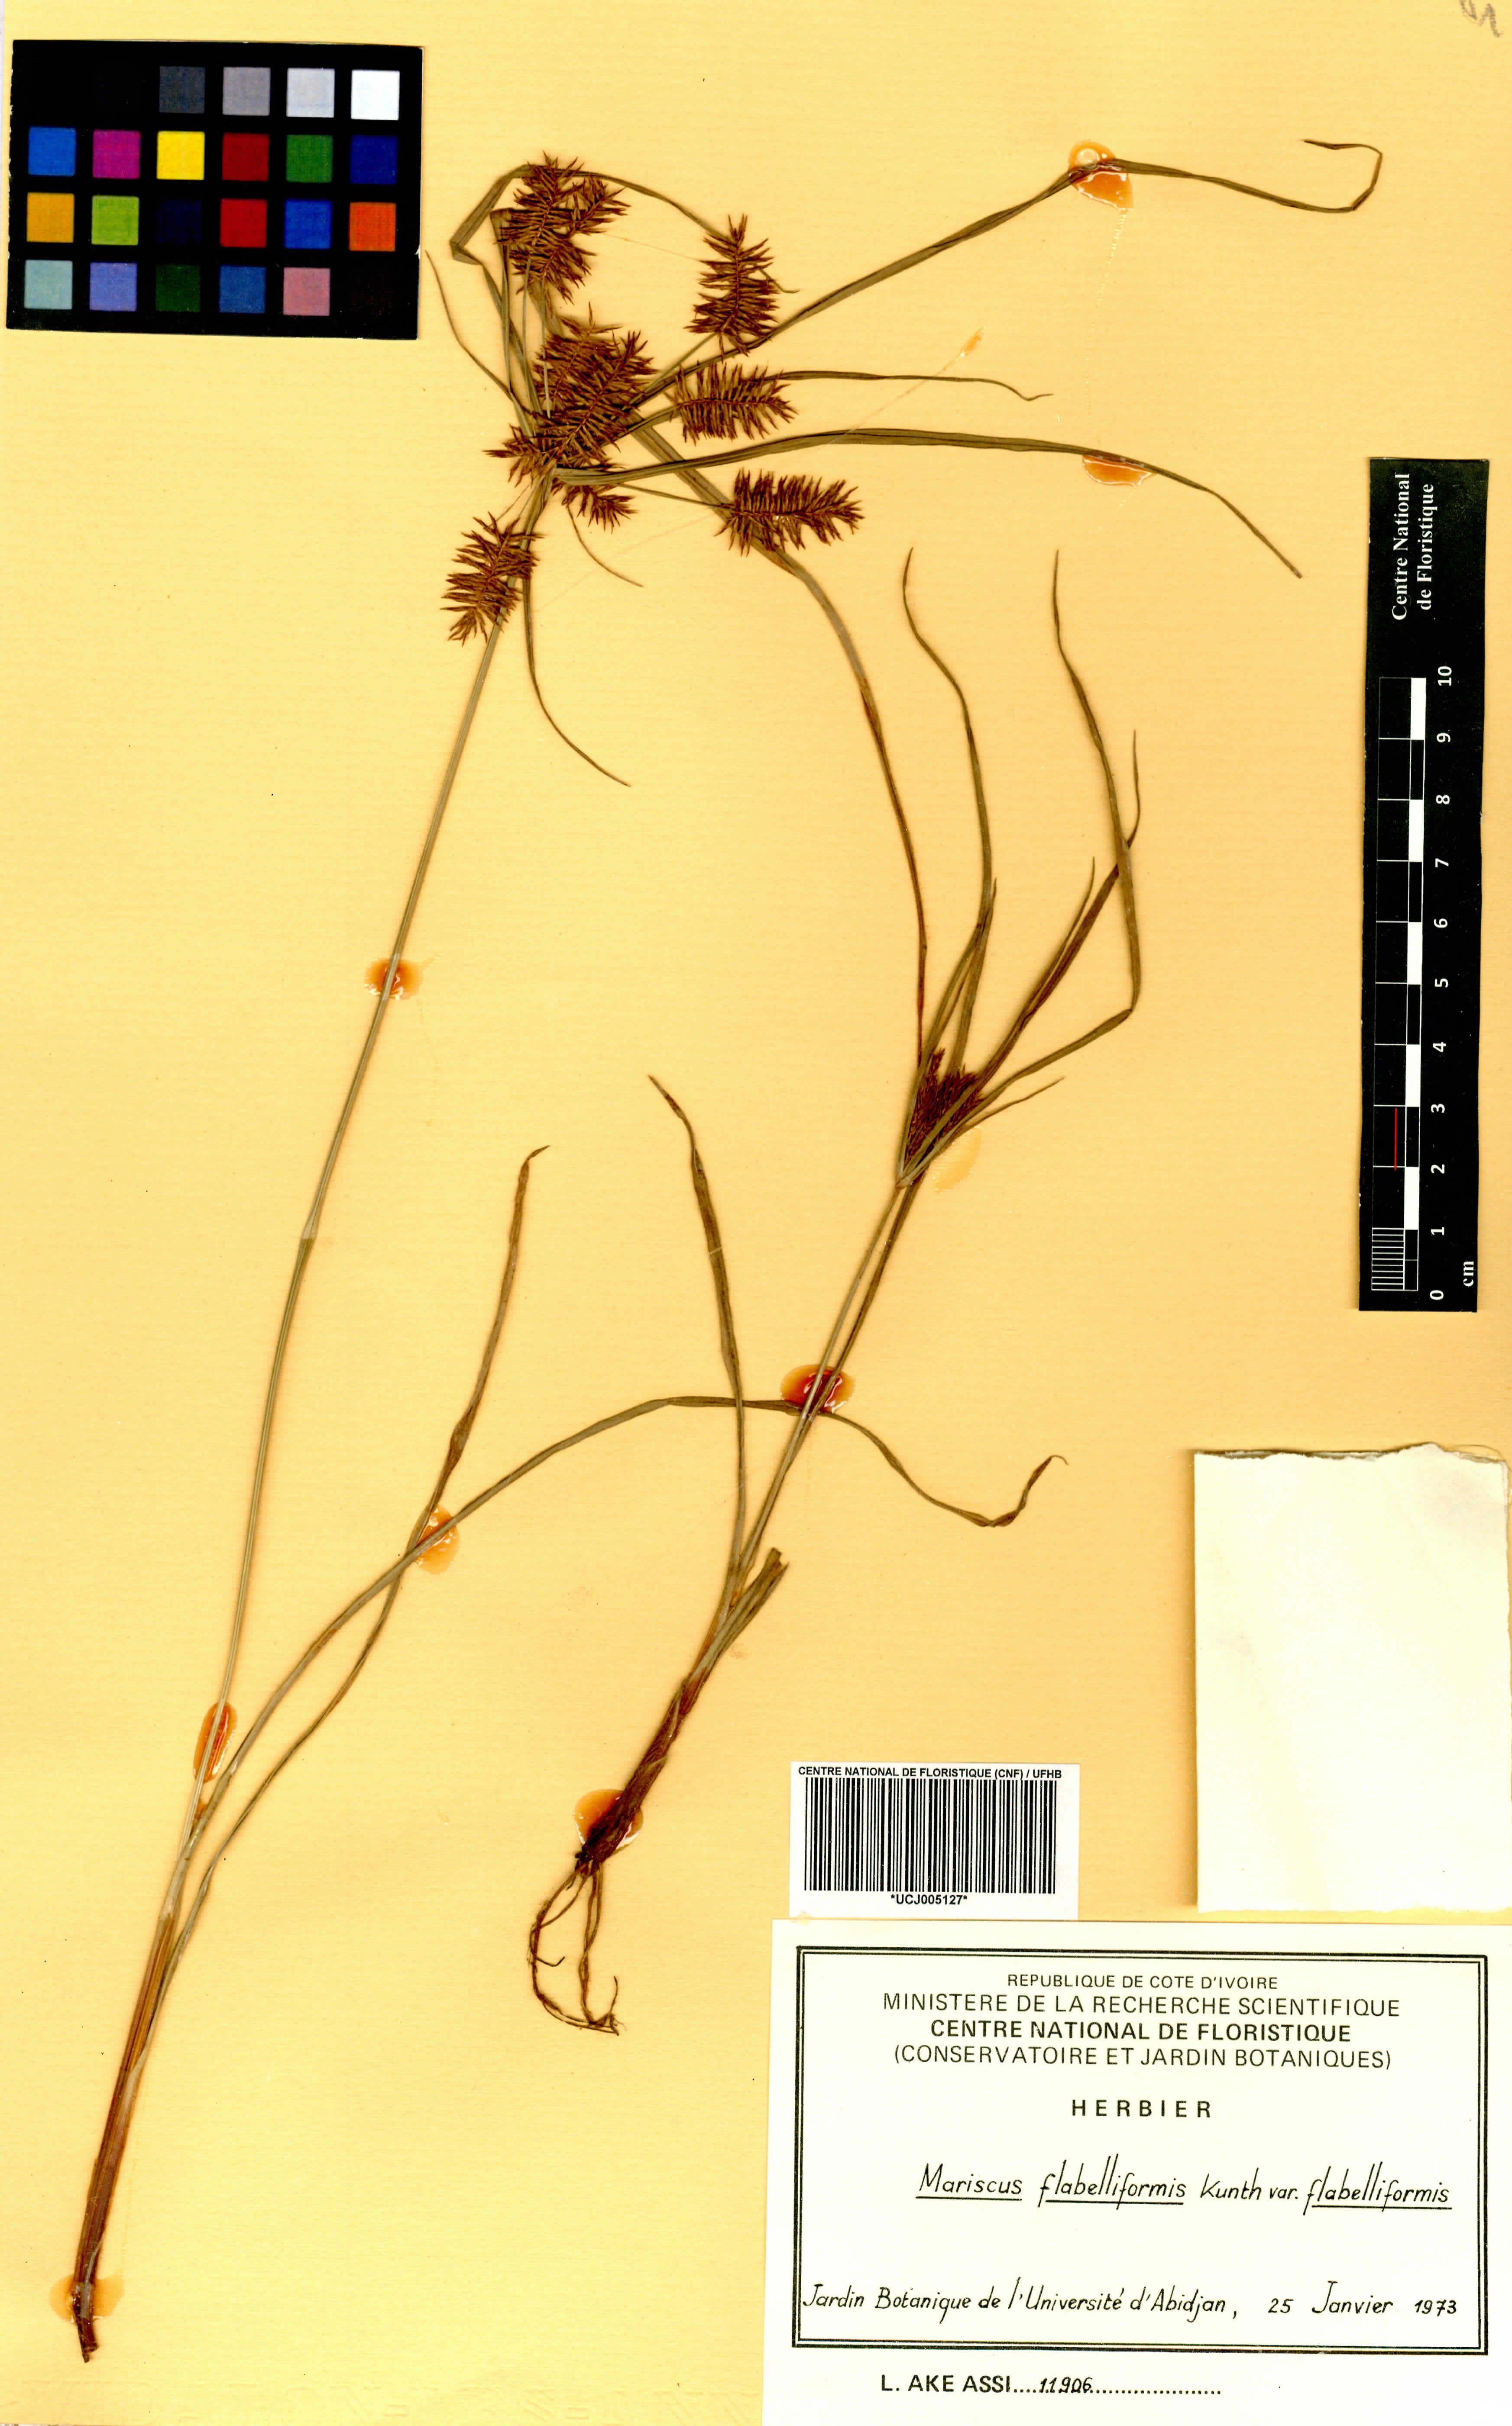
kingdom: Plantae
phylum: Tracheophyta
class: Liliopsida
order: Poales
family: Cyperaceae
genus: Cyperus
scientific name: Cyperus tenuis
